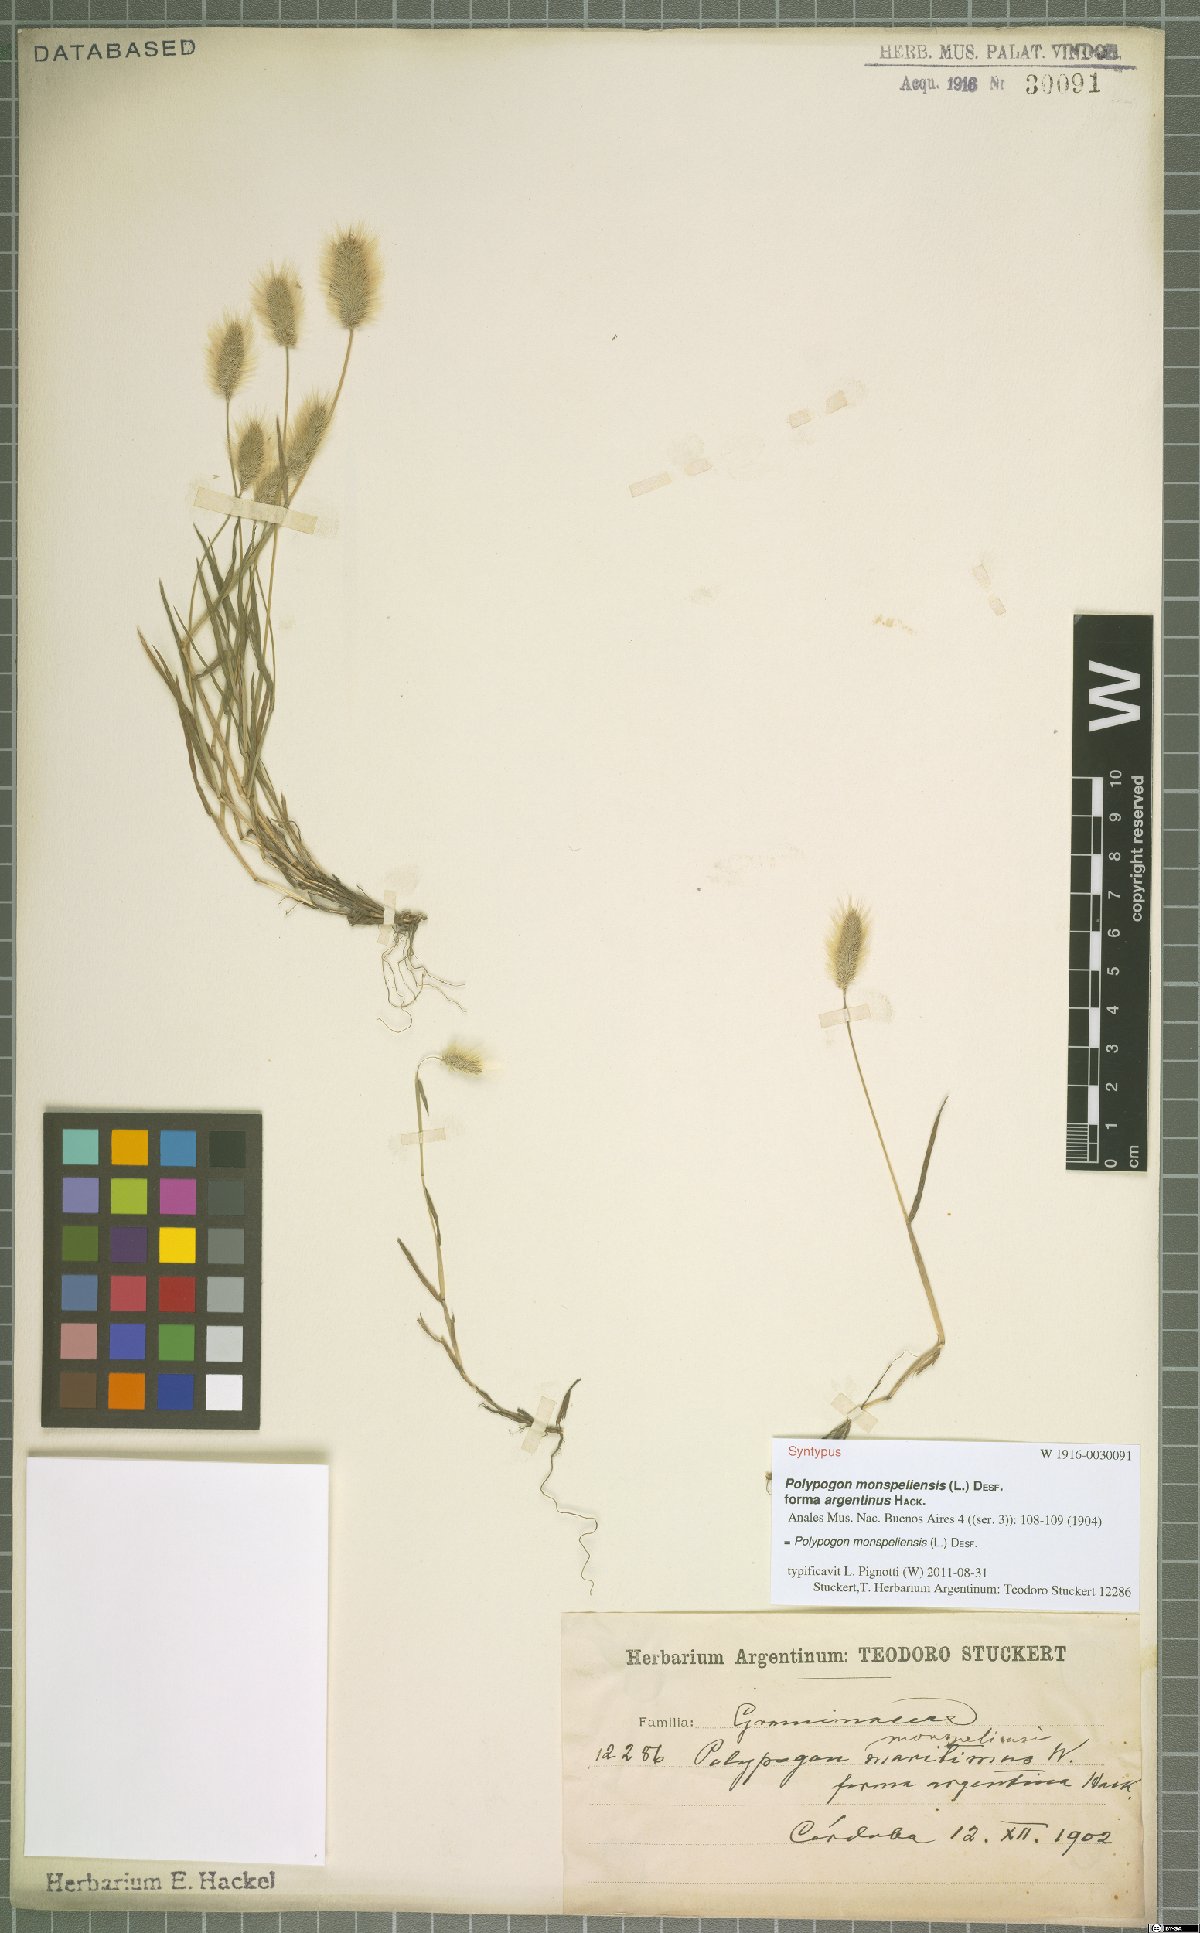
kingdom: Plantae
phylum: Tracheophyta
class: Liliopsida
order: Poales
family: Poaceae
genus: Polypogon
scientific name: Polypogon monspeliensis
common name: Annual rabbitsfoot grass
